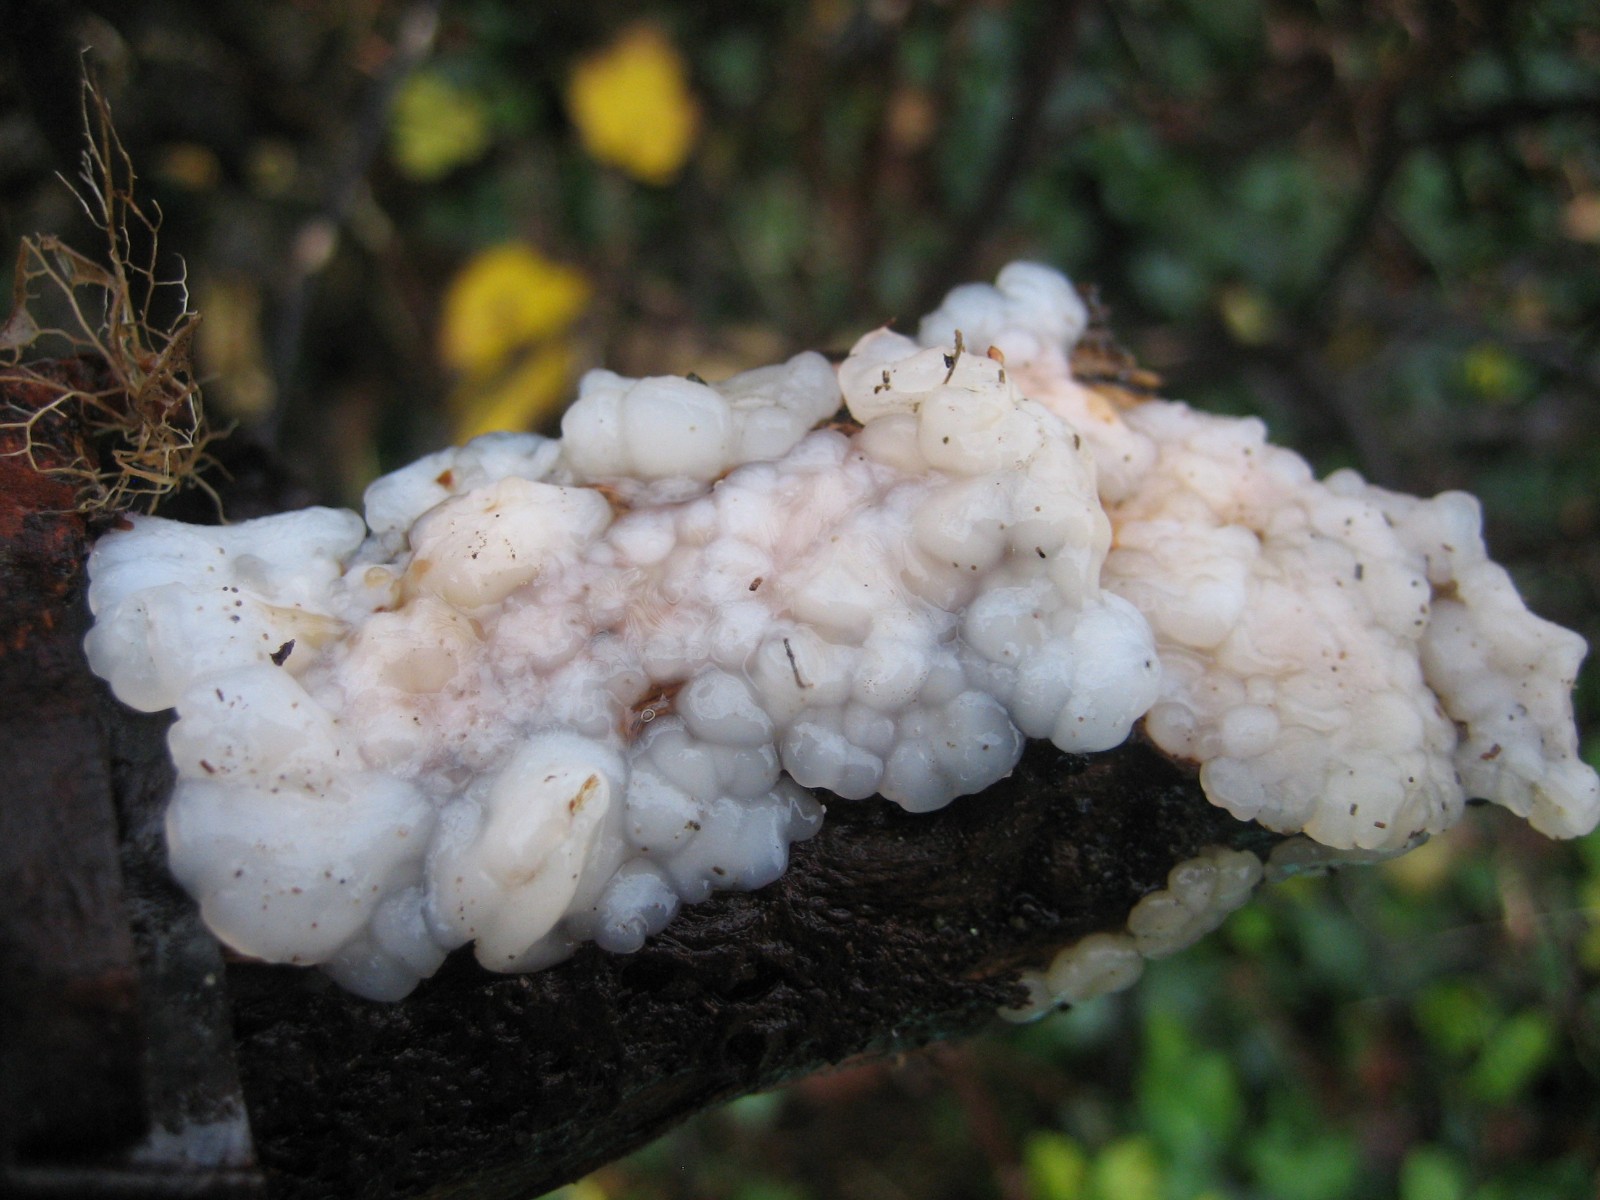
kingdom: Fungi
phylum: Basidiomycota
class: Agaricomycetes
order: Auriculariales
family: Auriculariaceae
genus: Exidia
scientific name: Exidia thuretiana
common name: hvidlig bævretop
